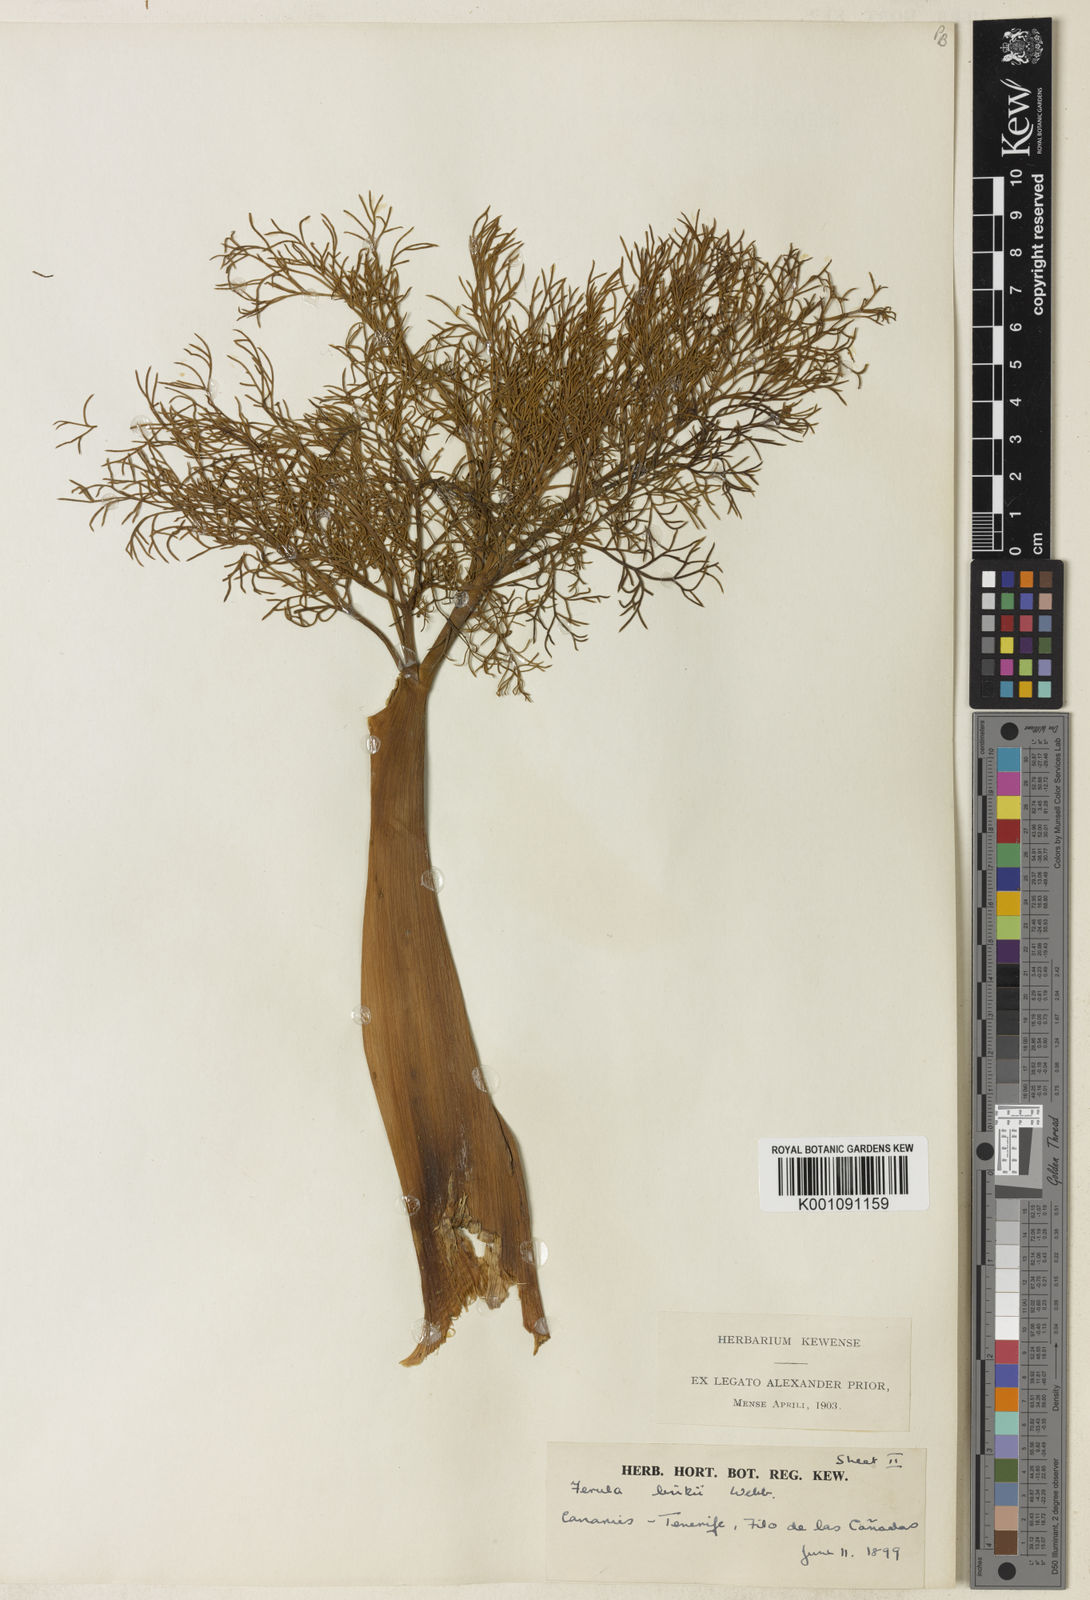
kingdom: Plantae
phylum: Tracheophyta
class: Magnoliopsida
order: Apiales
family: Apiaceae
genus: Ferula
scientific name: Ferula communis
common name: Giant fennel
